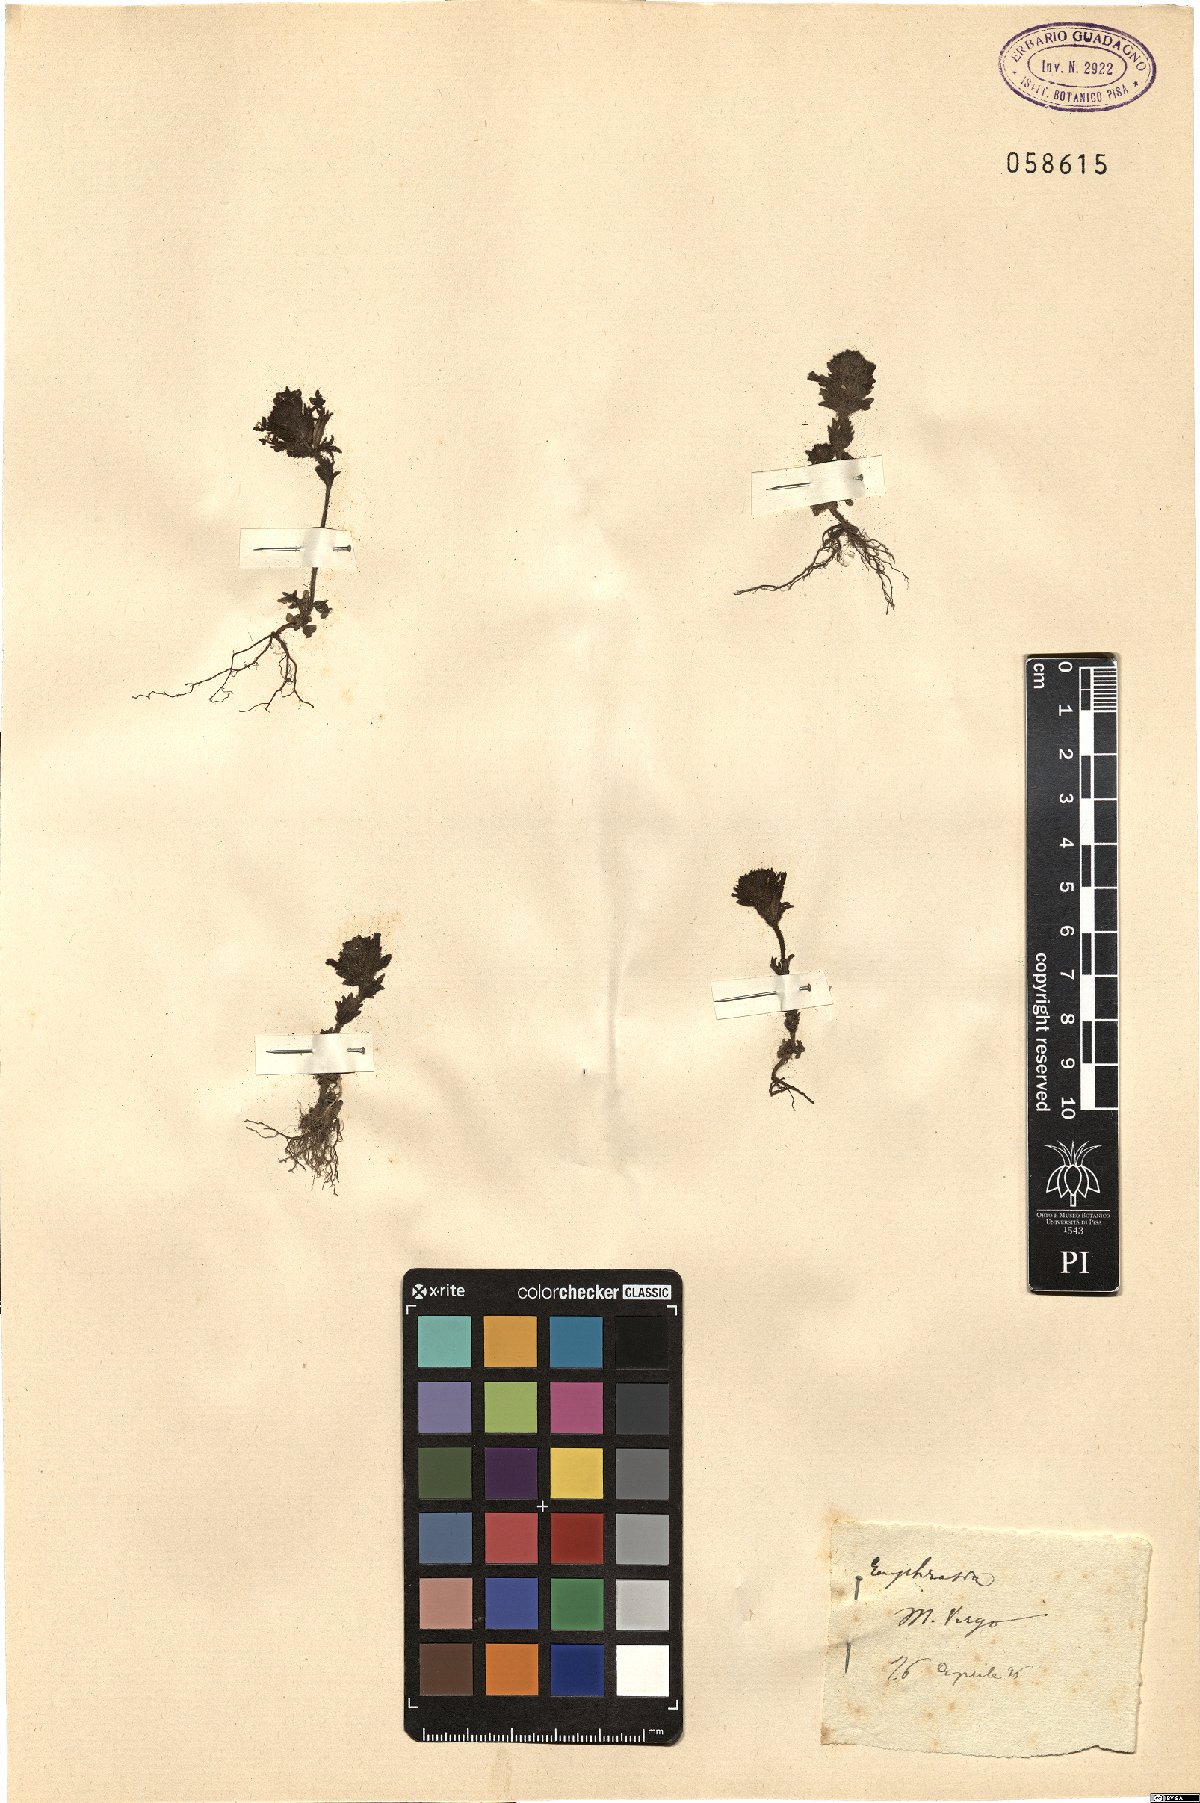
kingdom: Plantae
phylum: Tracheophyta
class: Magnoliopsida
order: Lamiales
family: Orobanchaceae
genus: Euphrasia
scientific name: Euphrasia
